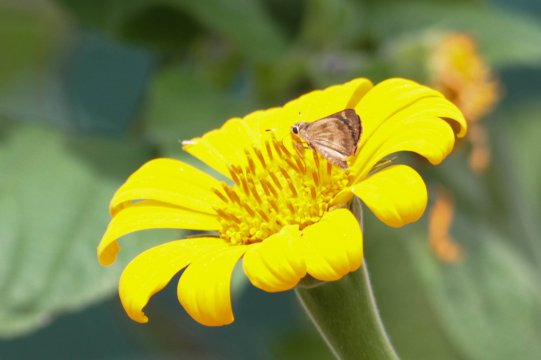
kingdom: Animalia
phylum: Arthropoda
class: Insecta
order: Lepidoptera
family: Hesperiidae
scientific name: Hesperiidae
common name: Skippers
